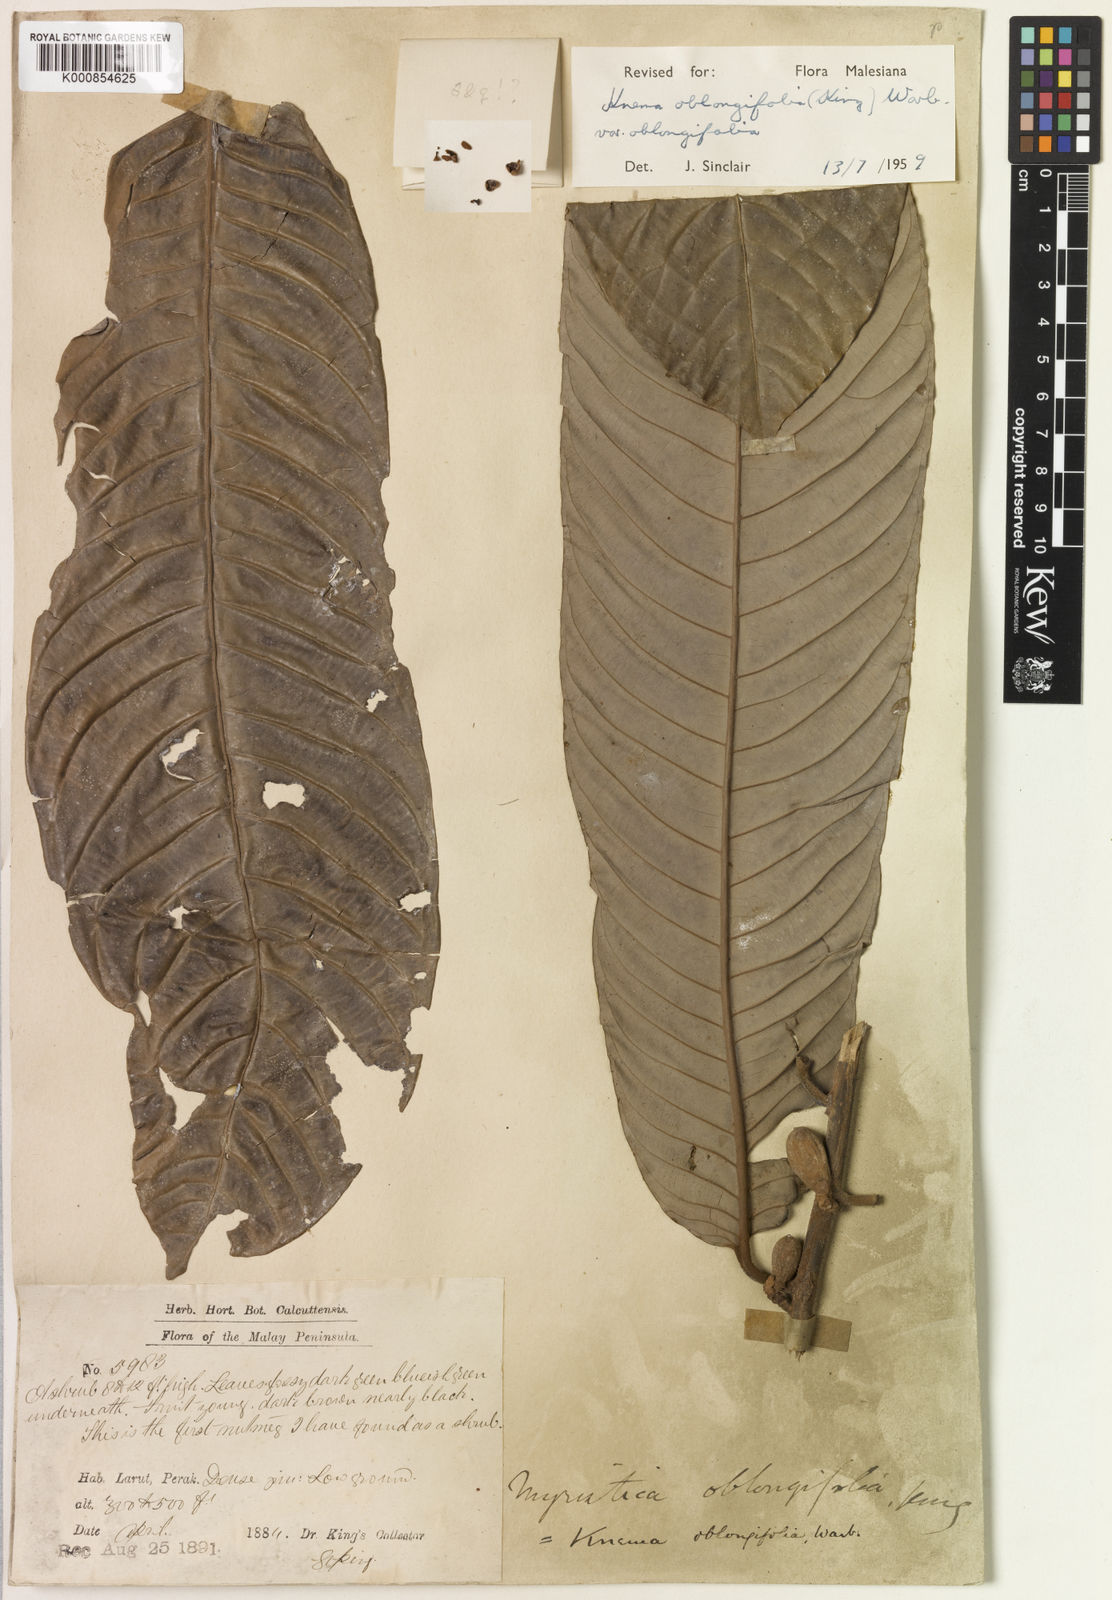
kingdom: Plantae
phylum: Tracheophyta
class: Magnoliopsida
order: Magnoliales
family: Myristicaceae
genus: Knema
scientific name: Knema oblongifolia
